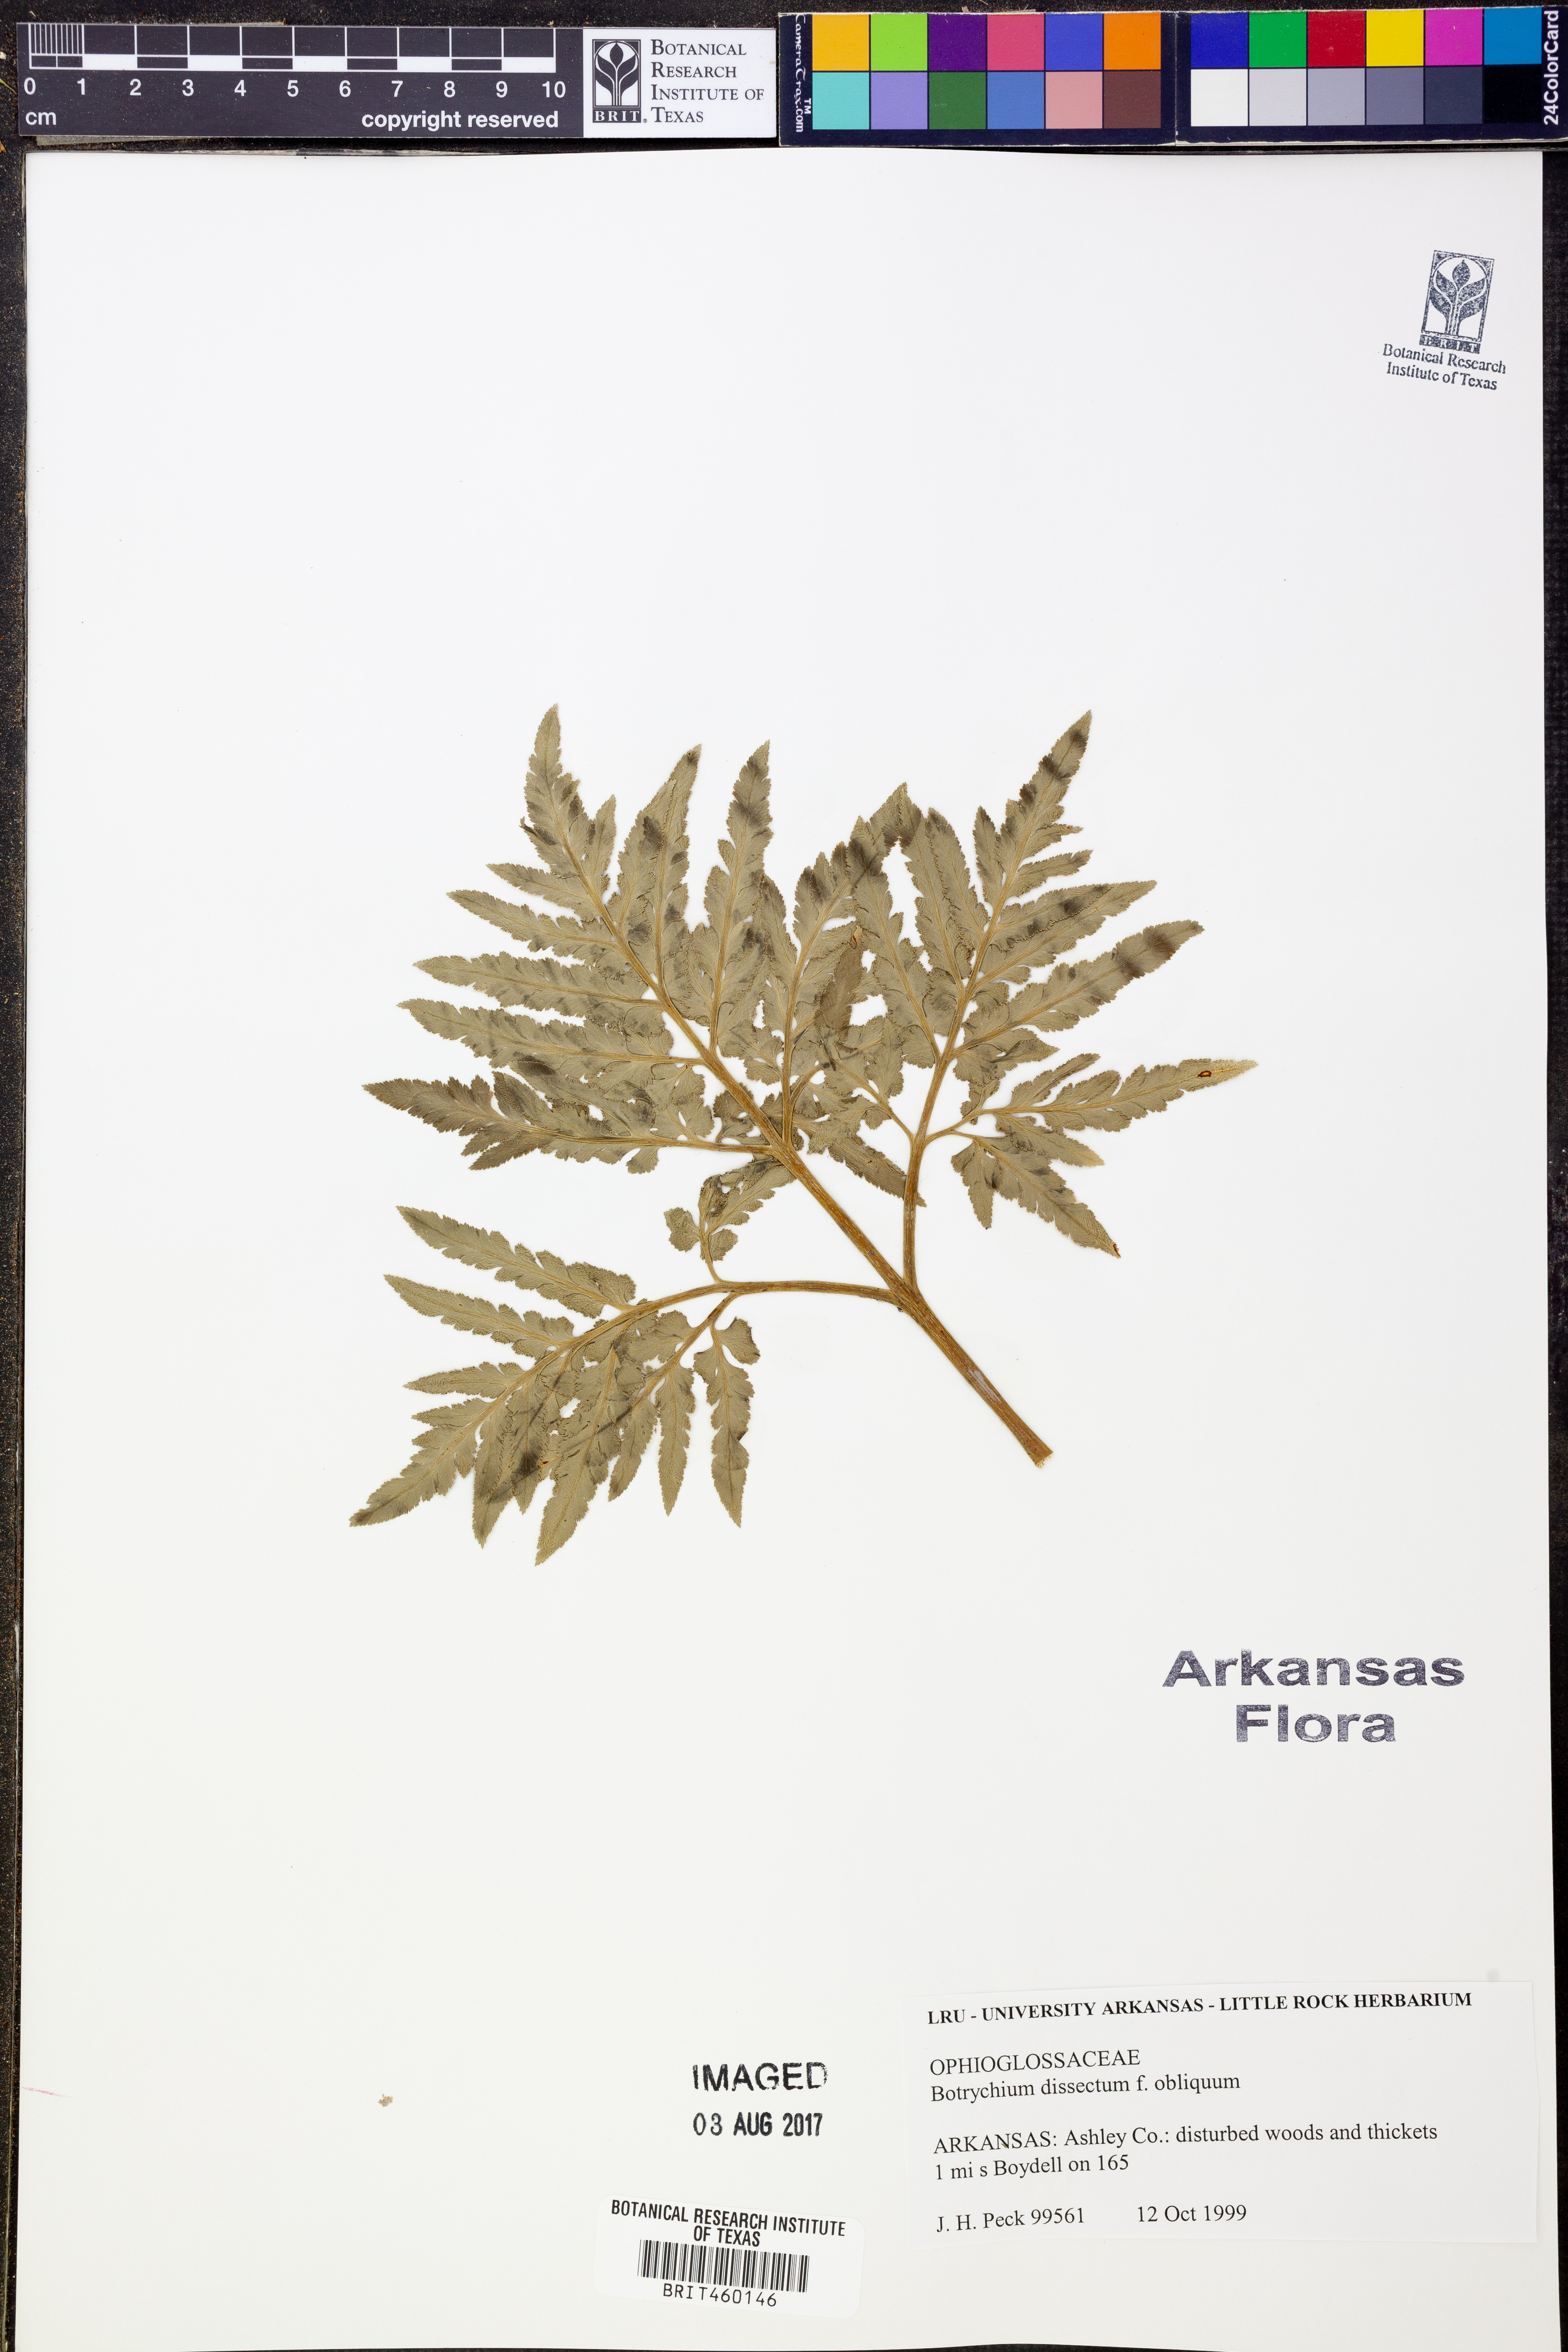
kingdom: Plantae
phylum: Tracheophyta
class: Polypodiopsida
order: Ophioglossales
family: Ophioglossaceae
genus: Sceptridium
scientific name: Sceptridium dissectum
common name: Cut-leaved grapefern
